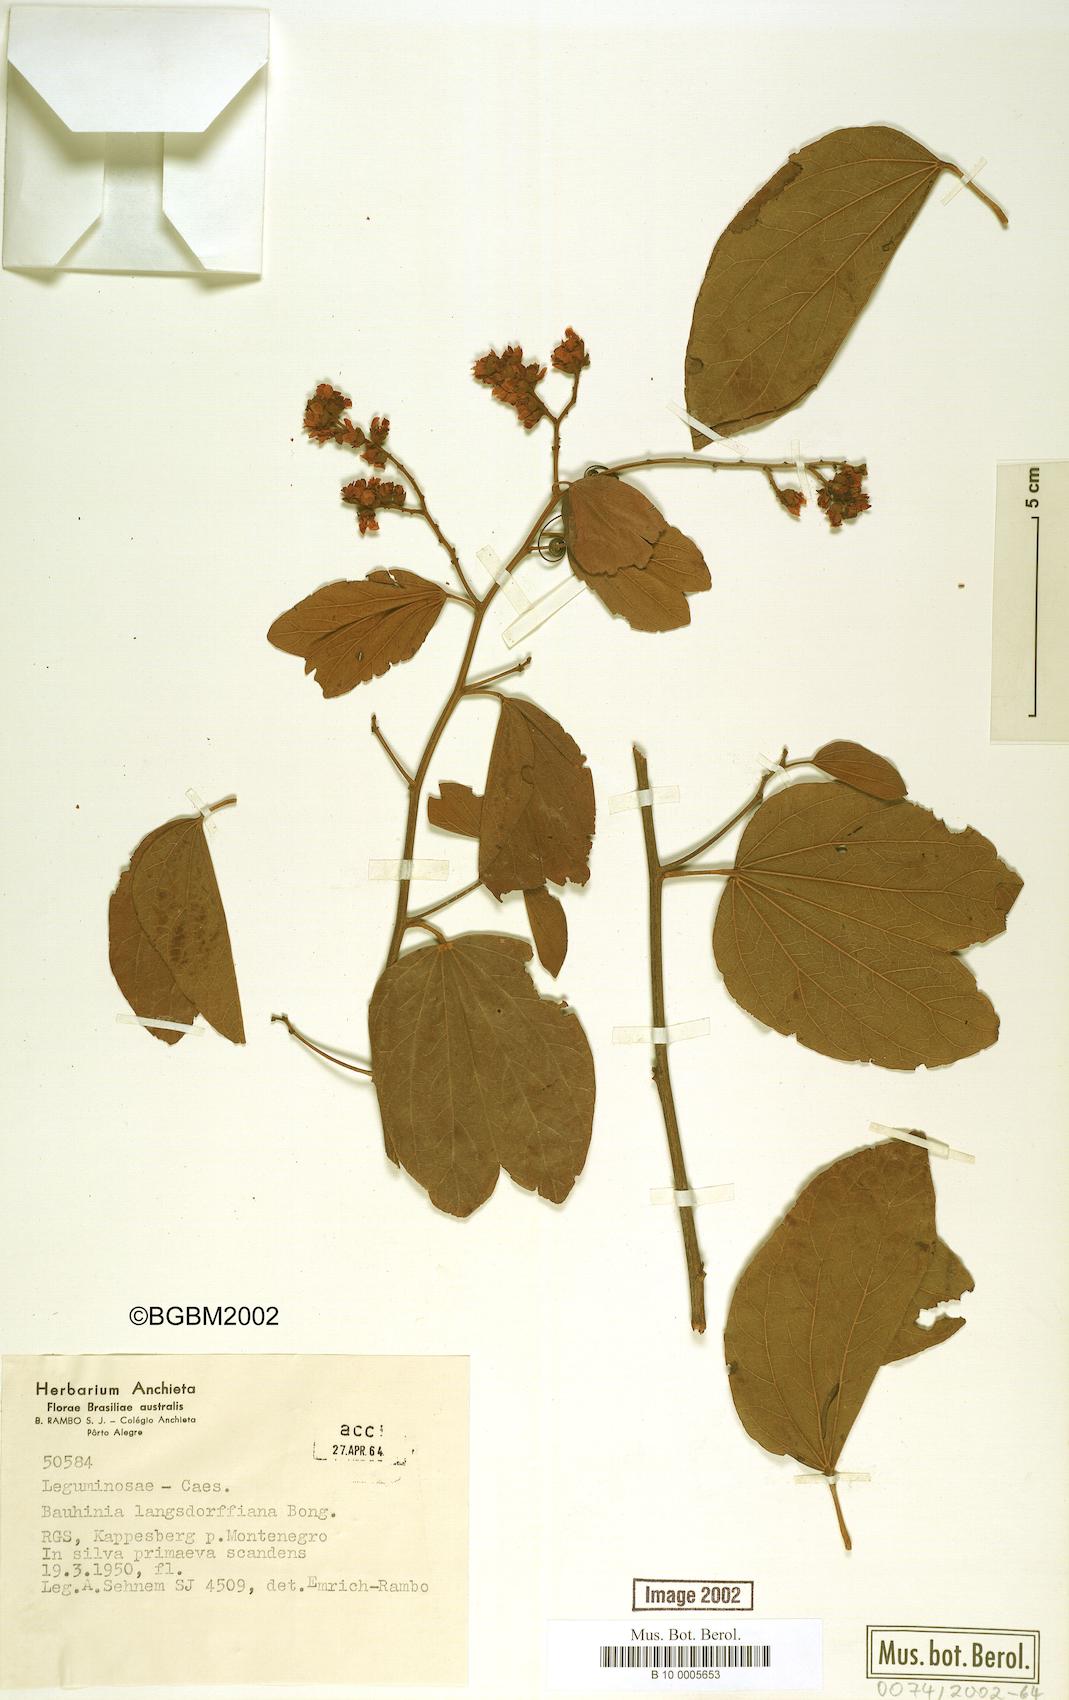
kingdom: Plantae
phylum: Tracheophyta
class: Magnoliopsida
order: Fabales
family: Fabaceae
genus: Schnella
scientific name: Schnella microstachya
